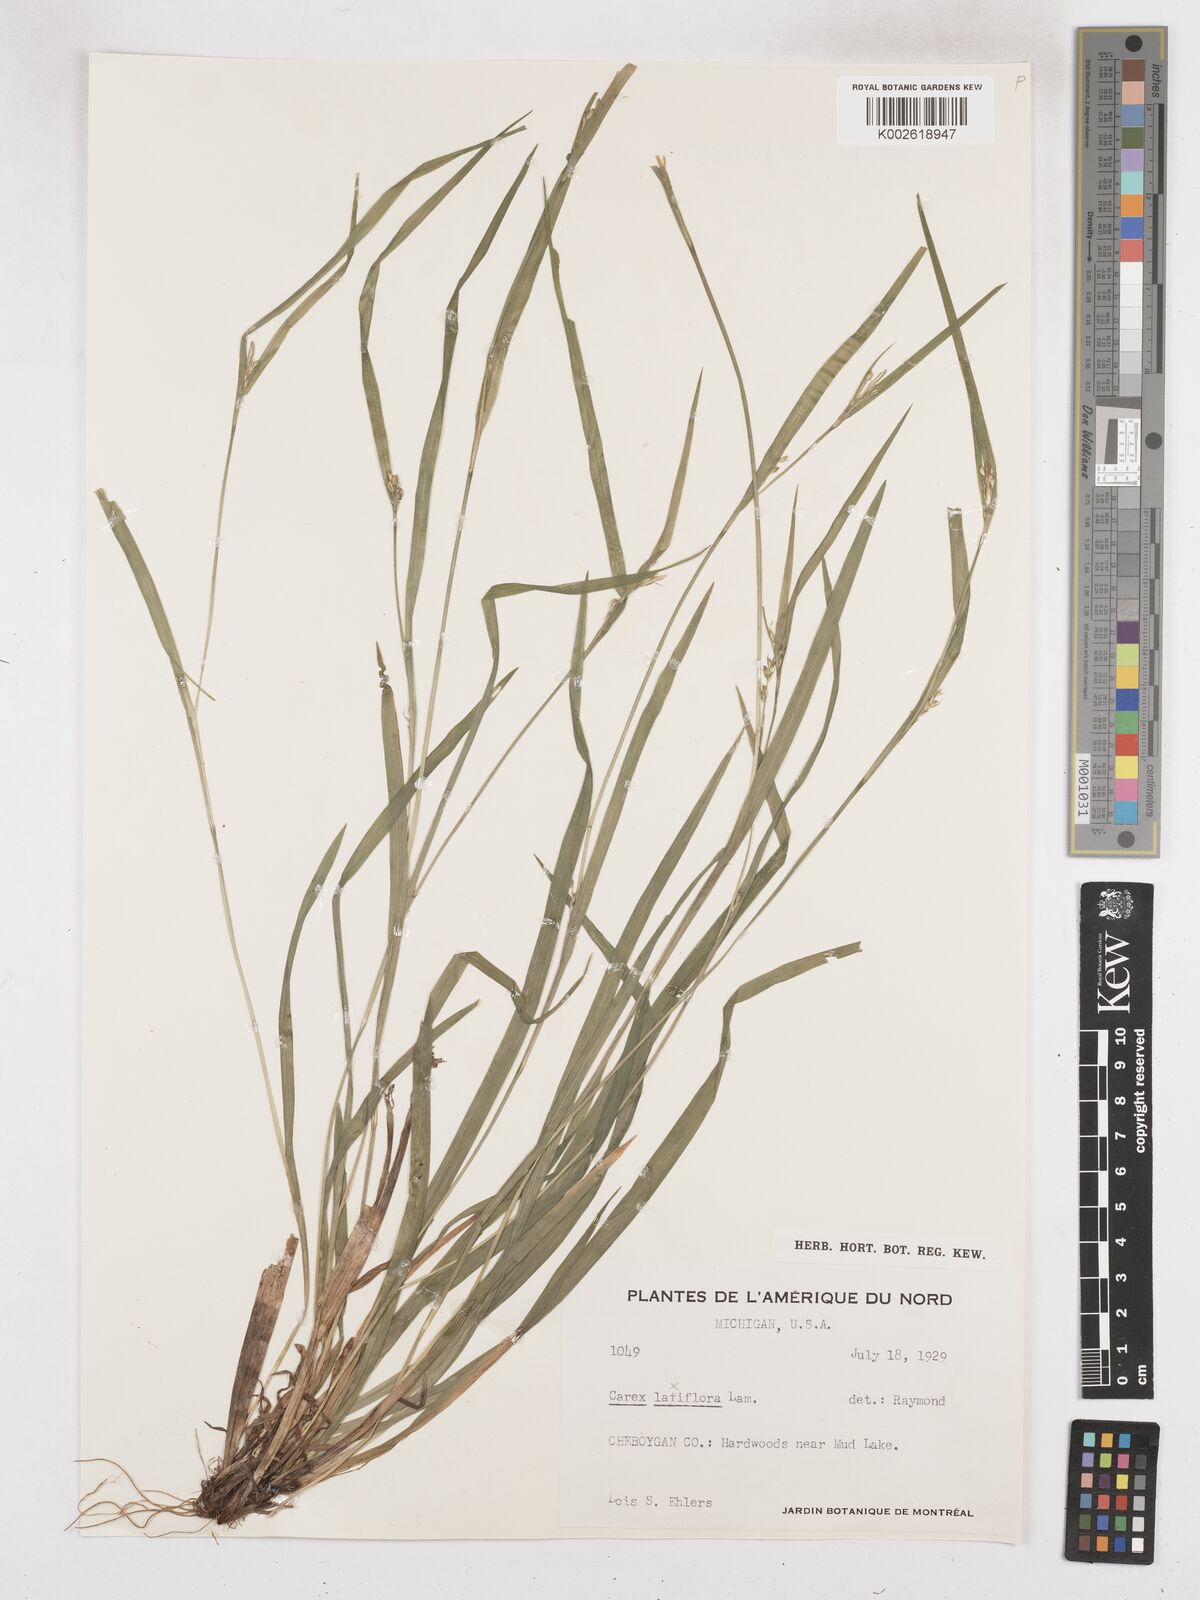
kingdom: Plantae
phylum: Tracheophyta
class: Liliopsida
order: Poales
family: Cyperaceae
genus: Carex
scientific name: Carex laxiflora
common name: Beech wood sedge
